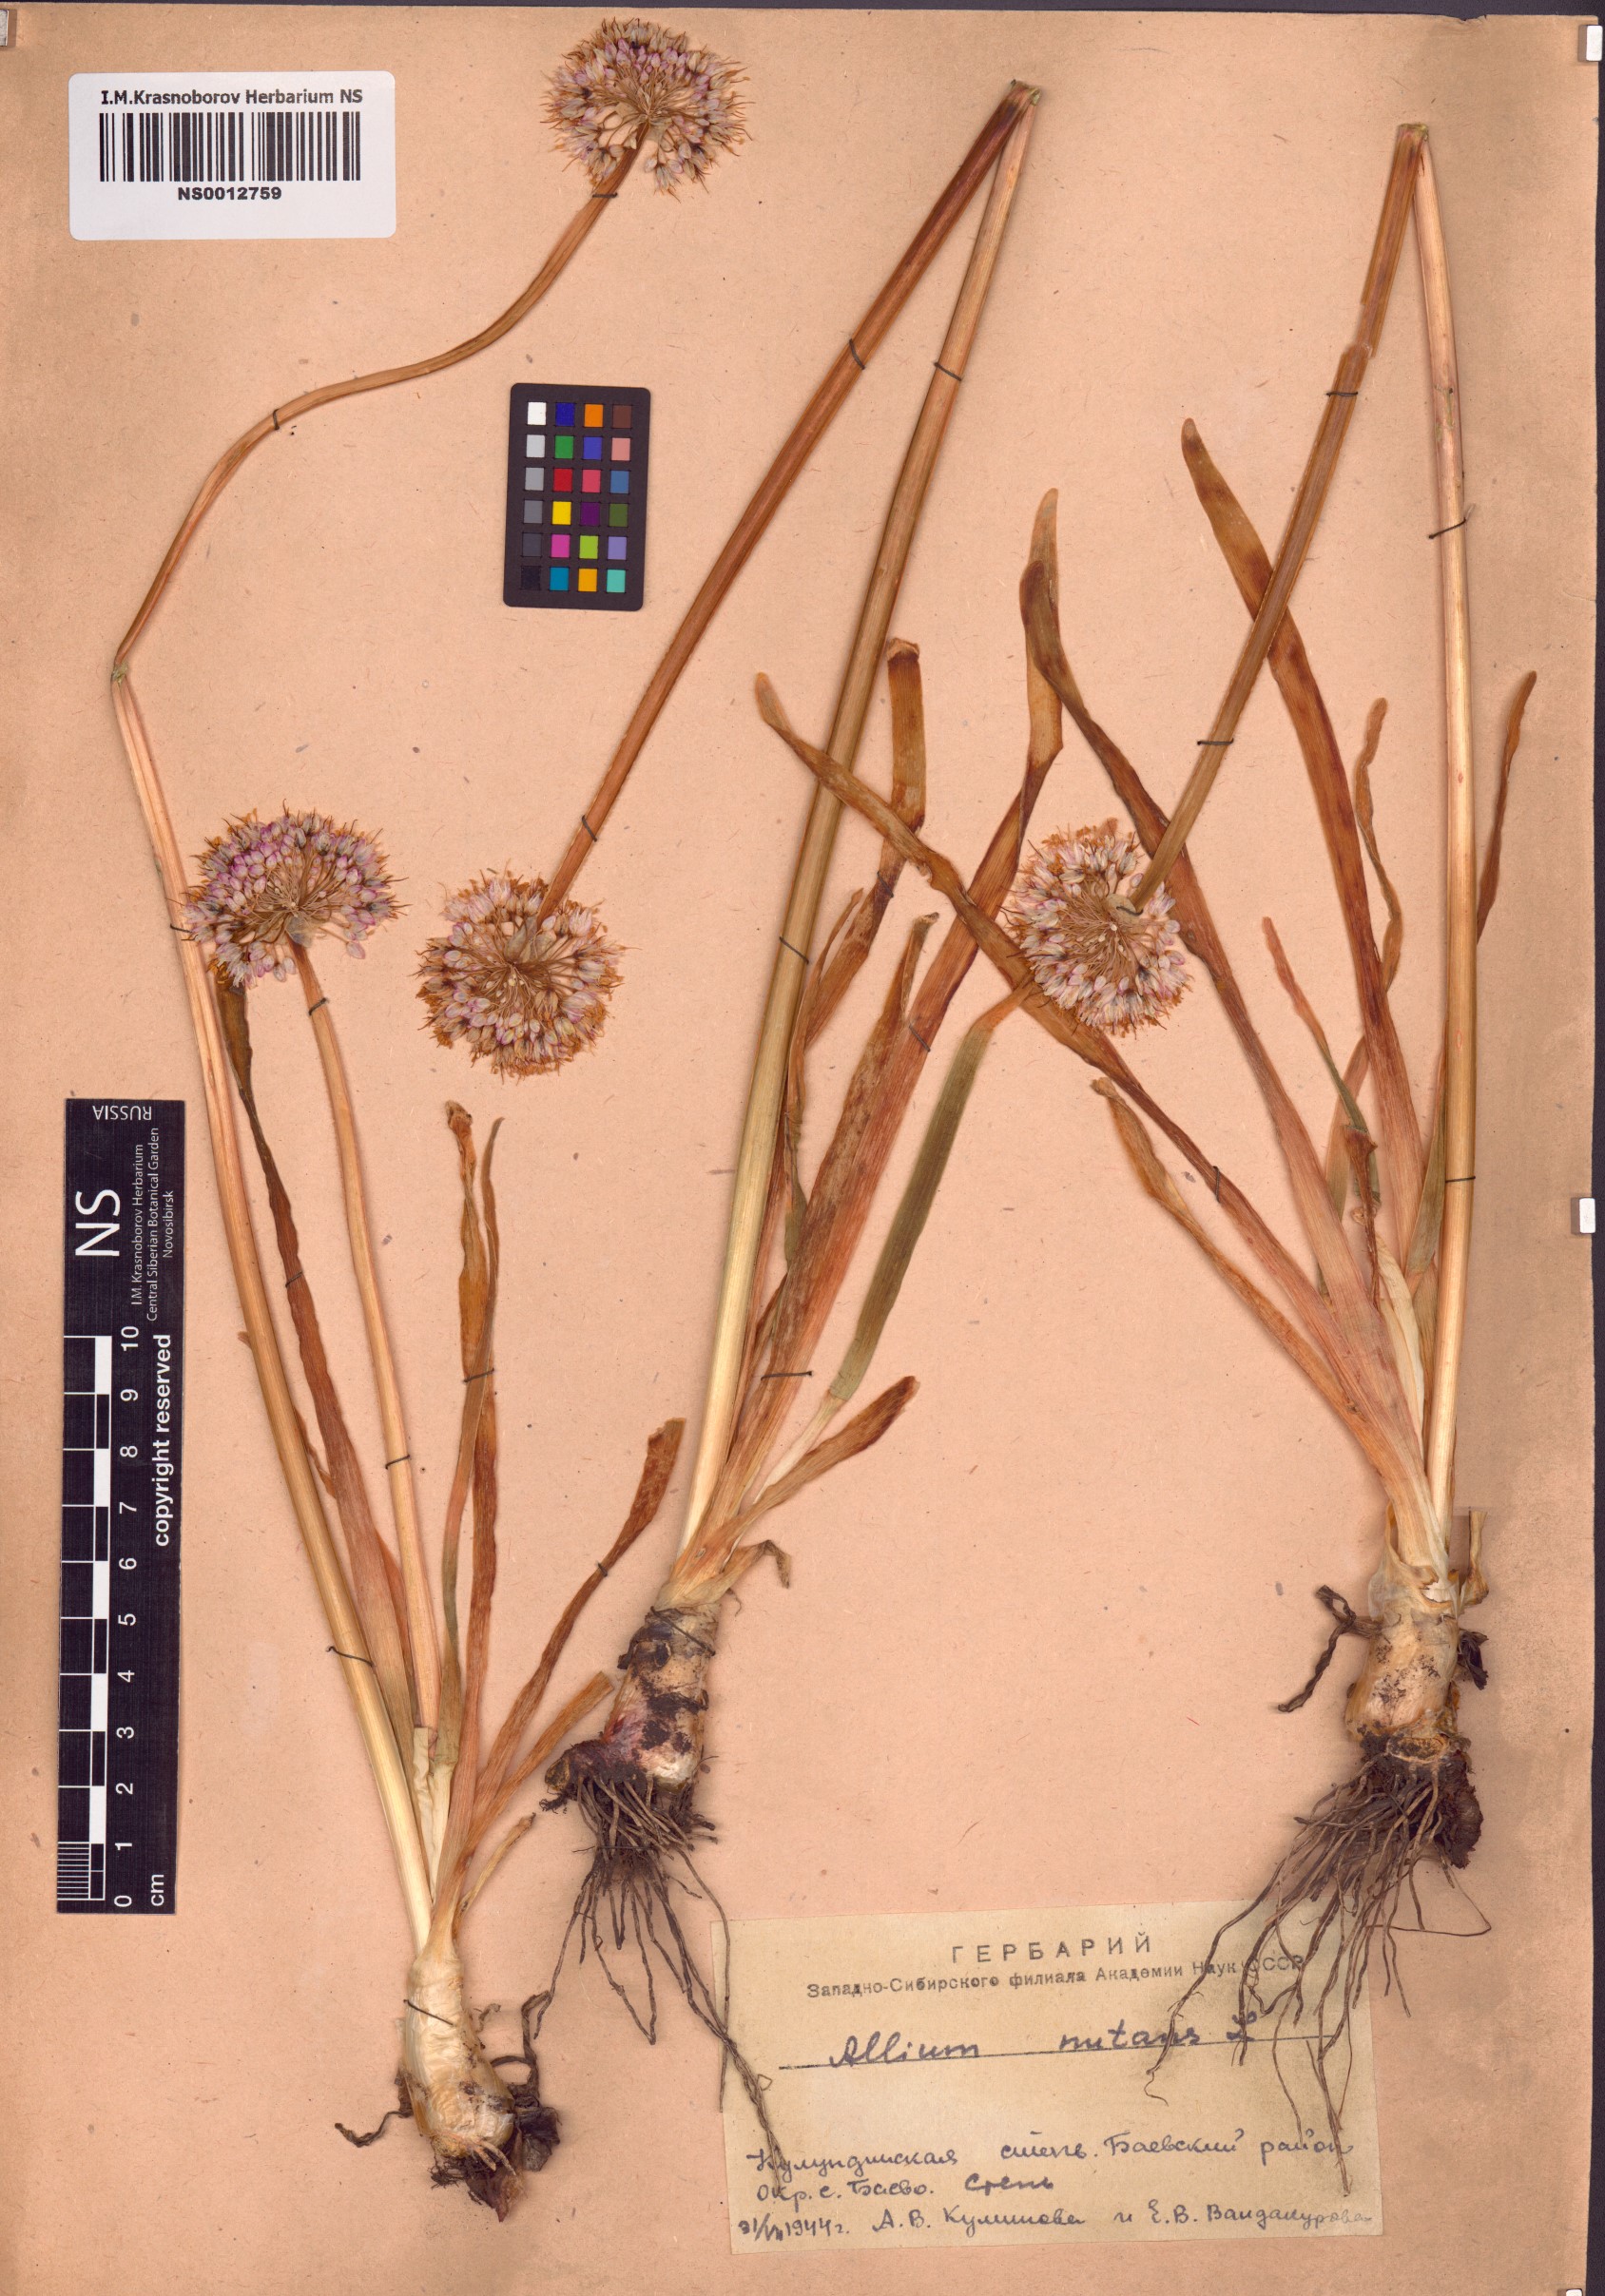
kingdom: Plantae
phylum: Tracheophyta
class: Liliopsida
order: Asparagales
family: Amaryllidaceae
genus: Allium
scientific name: Allium nutans
